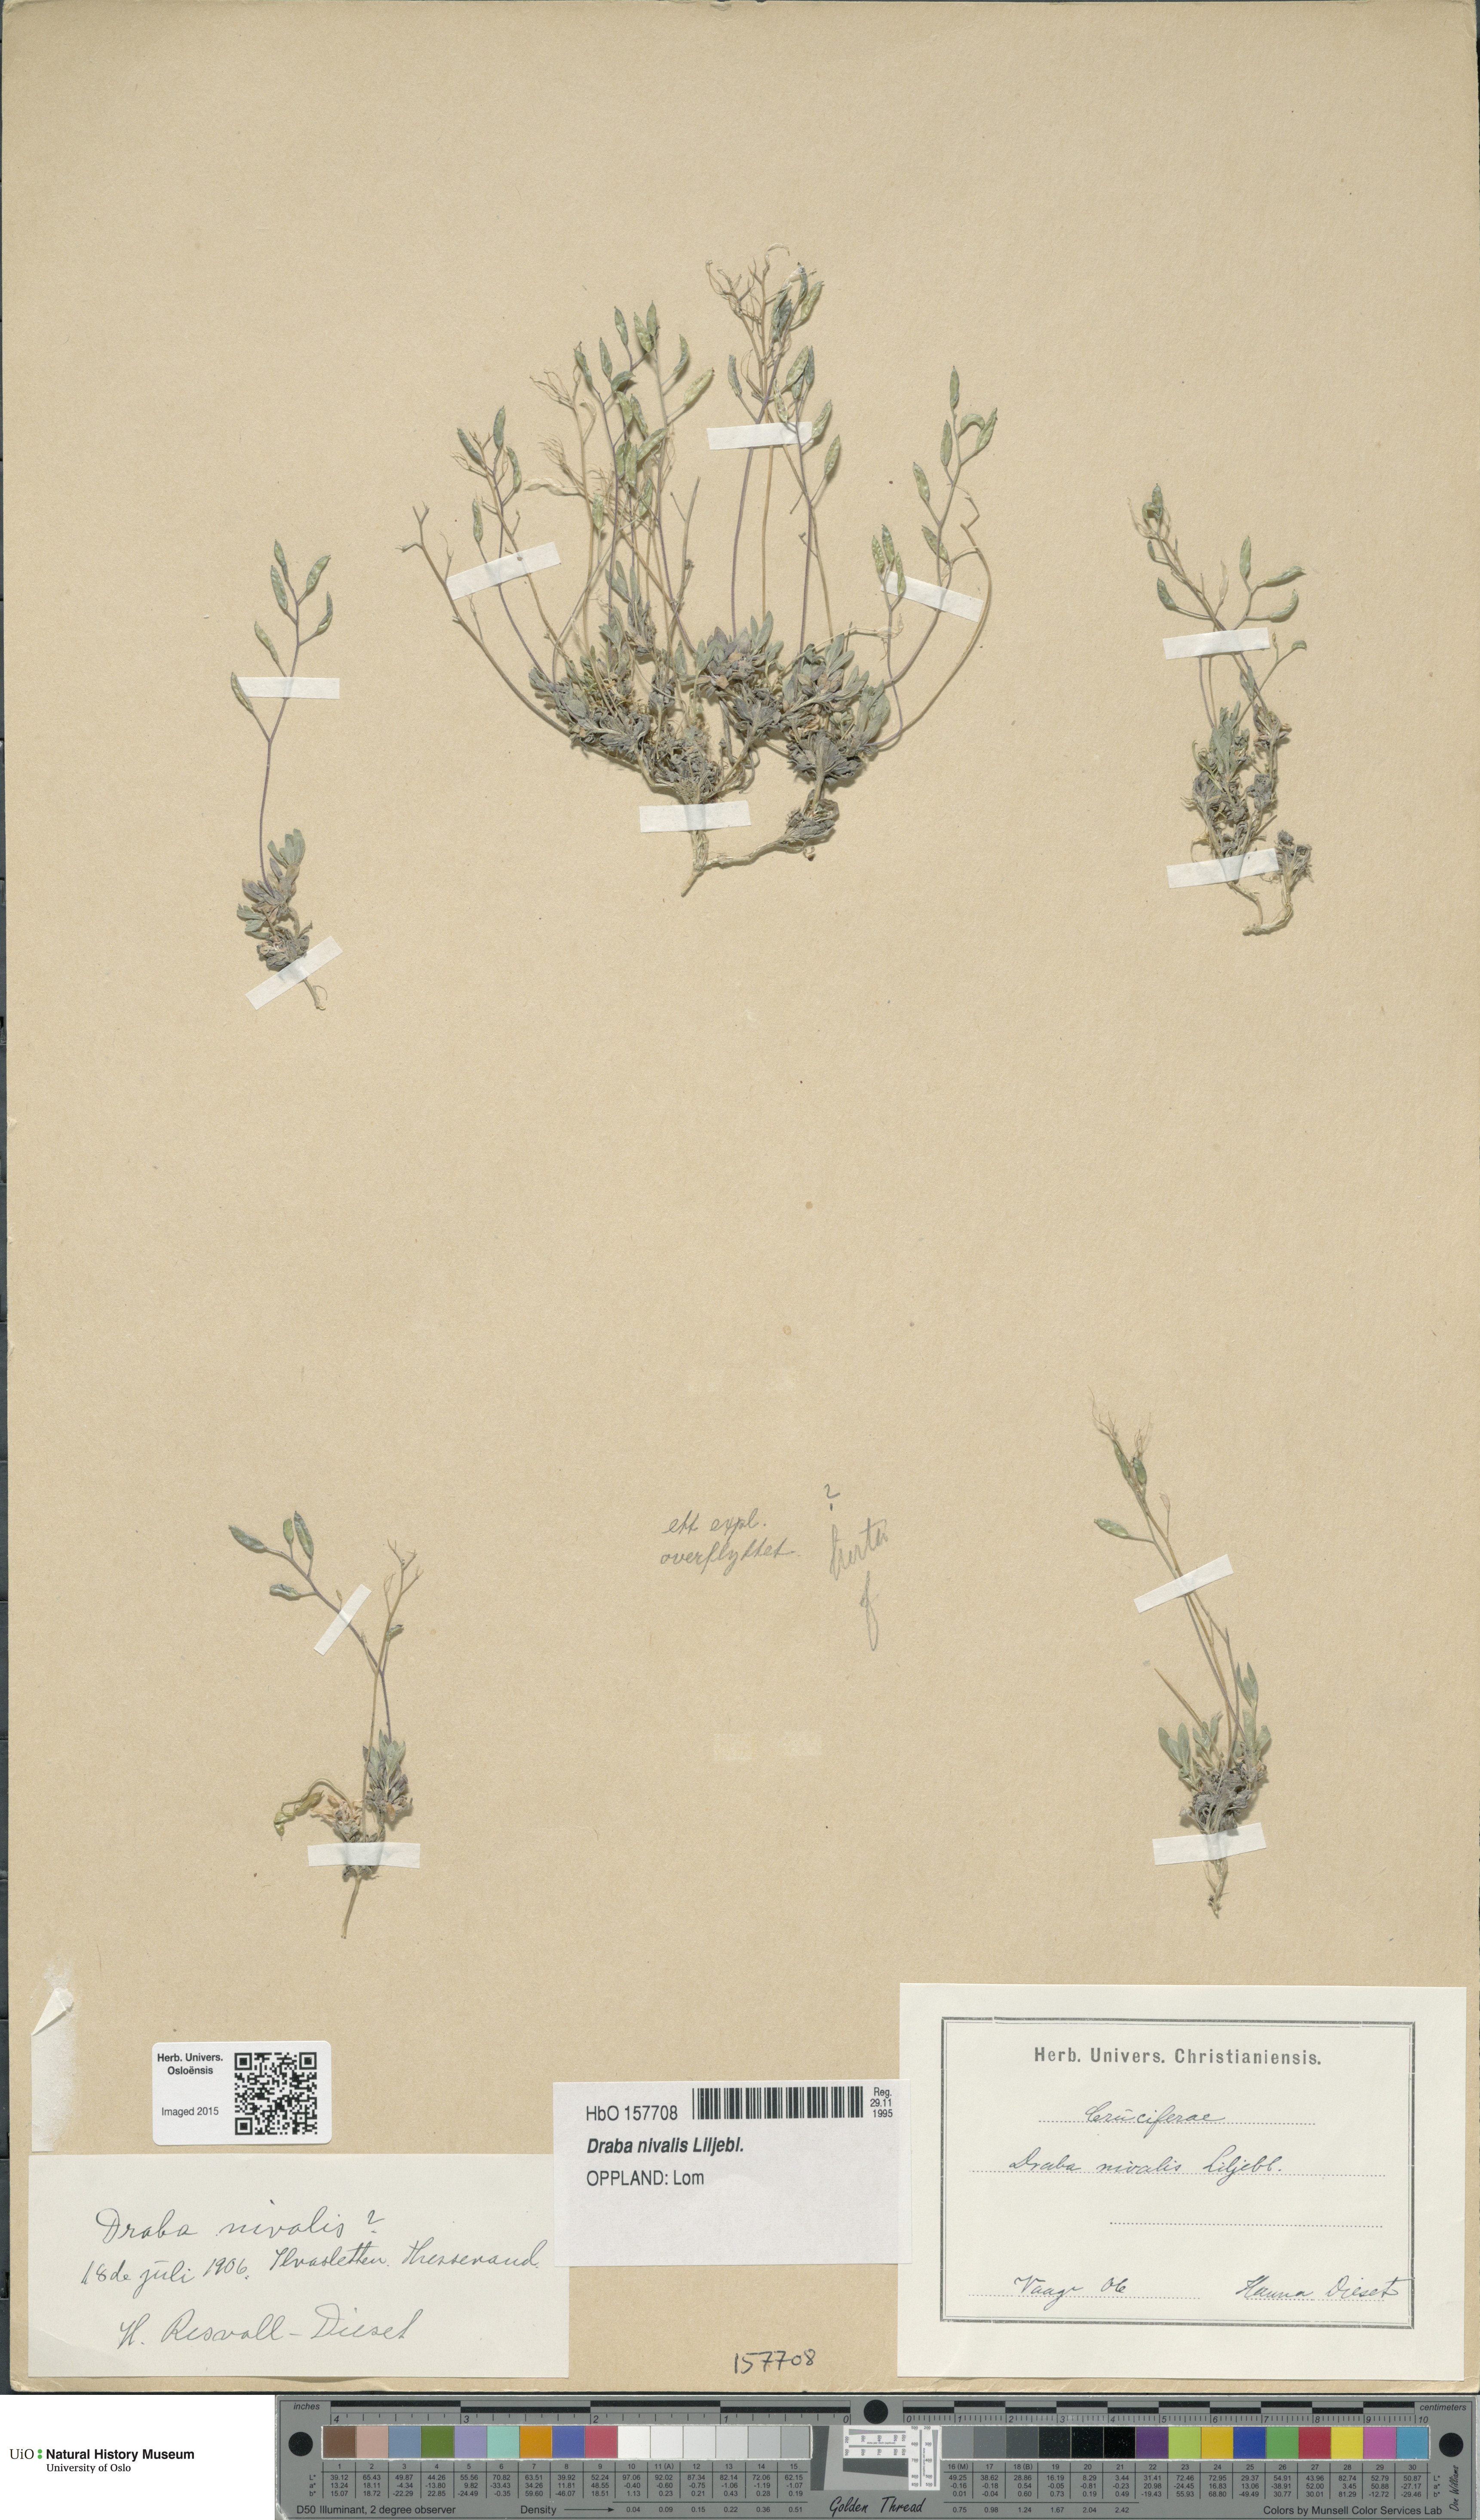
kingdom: Plantae
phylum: Tracheophyta
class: Magnoliopsida
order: Brassicales
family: Brassicaceae
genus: Draba
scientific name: Draba nivalis
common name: Snow draba
